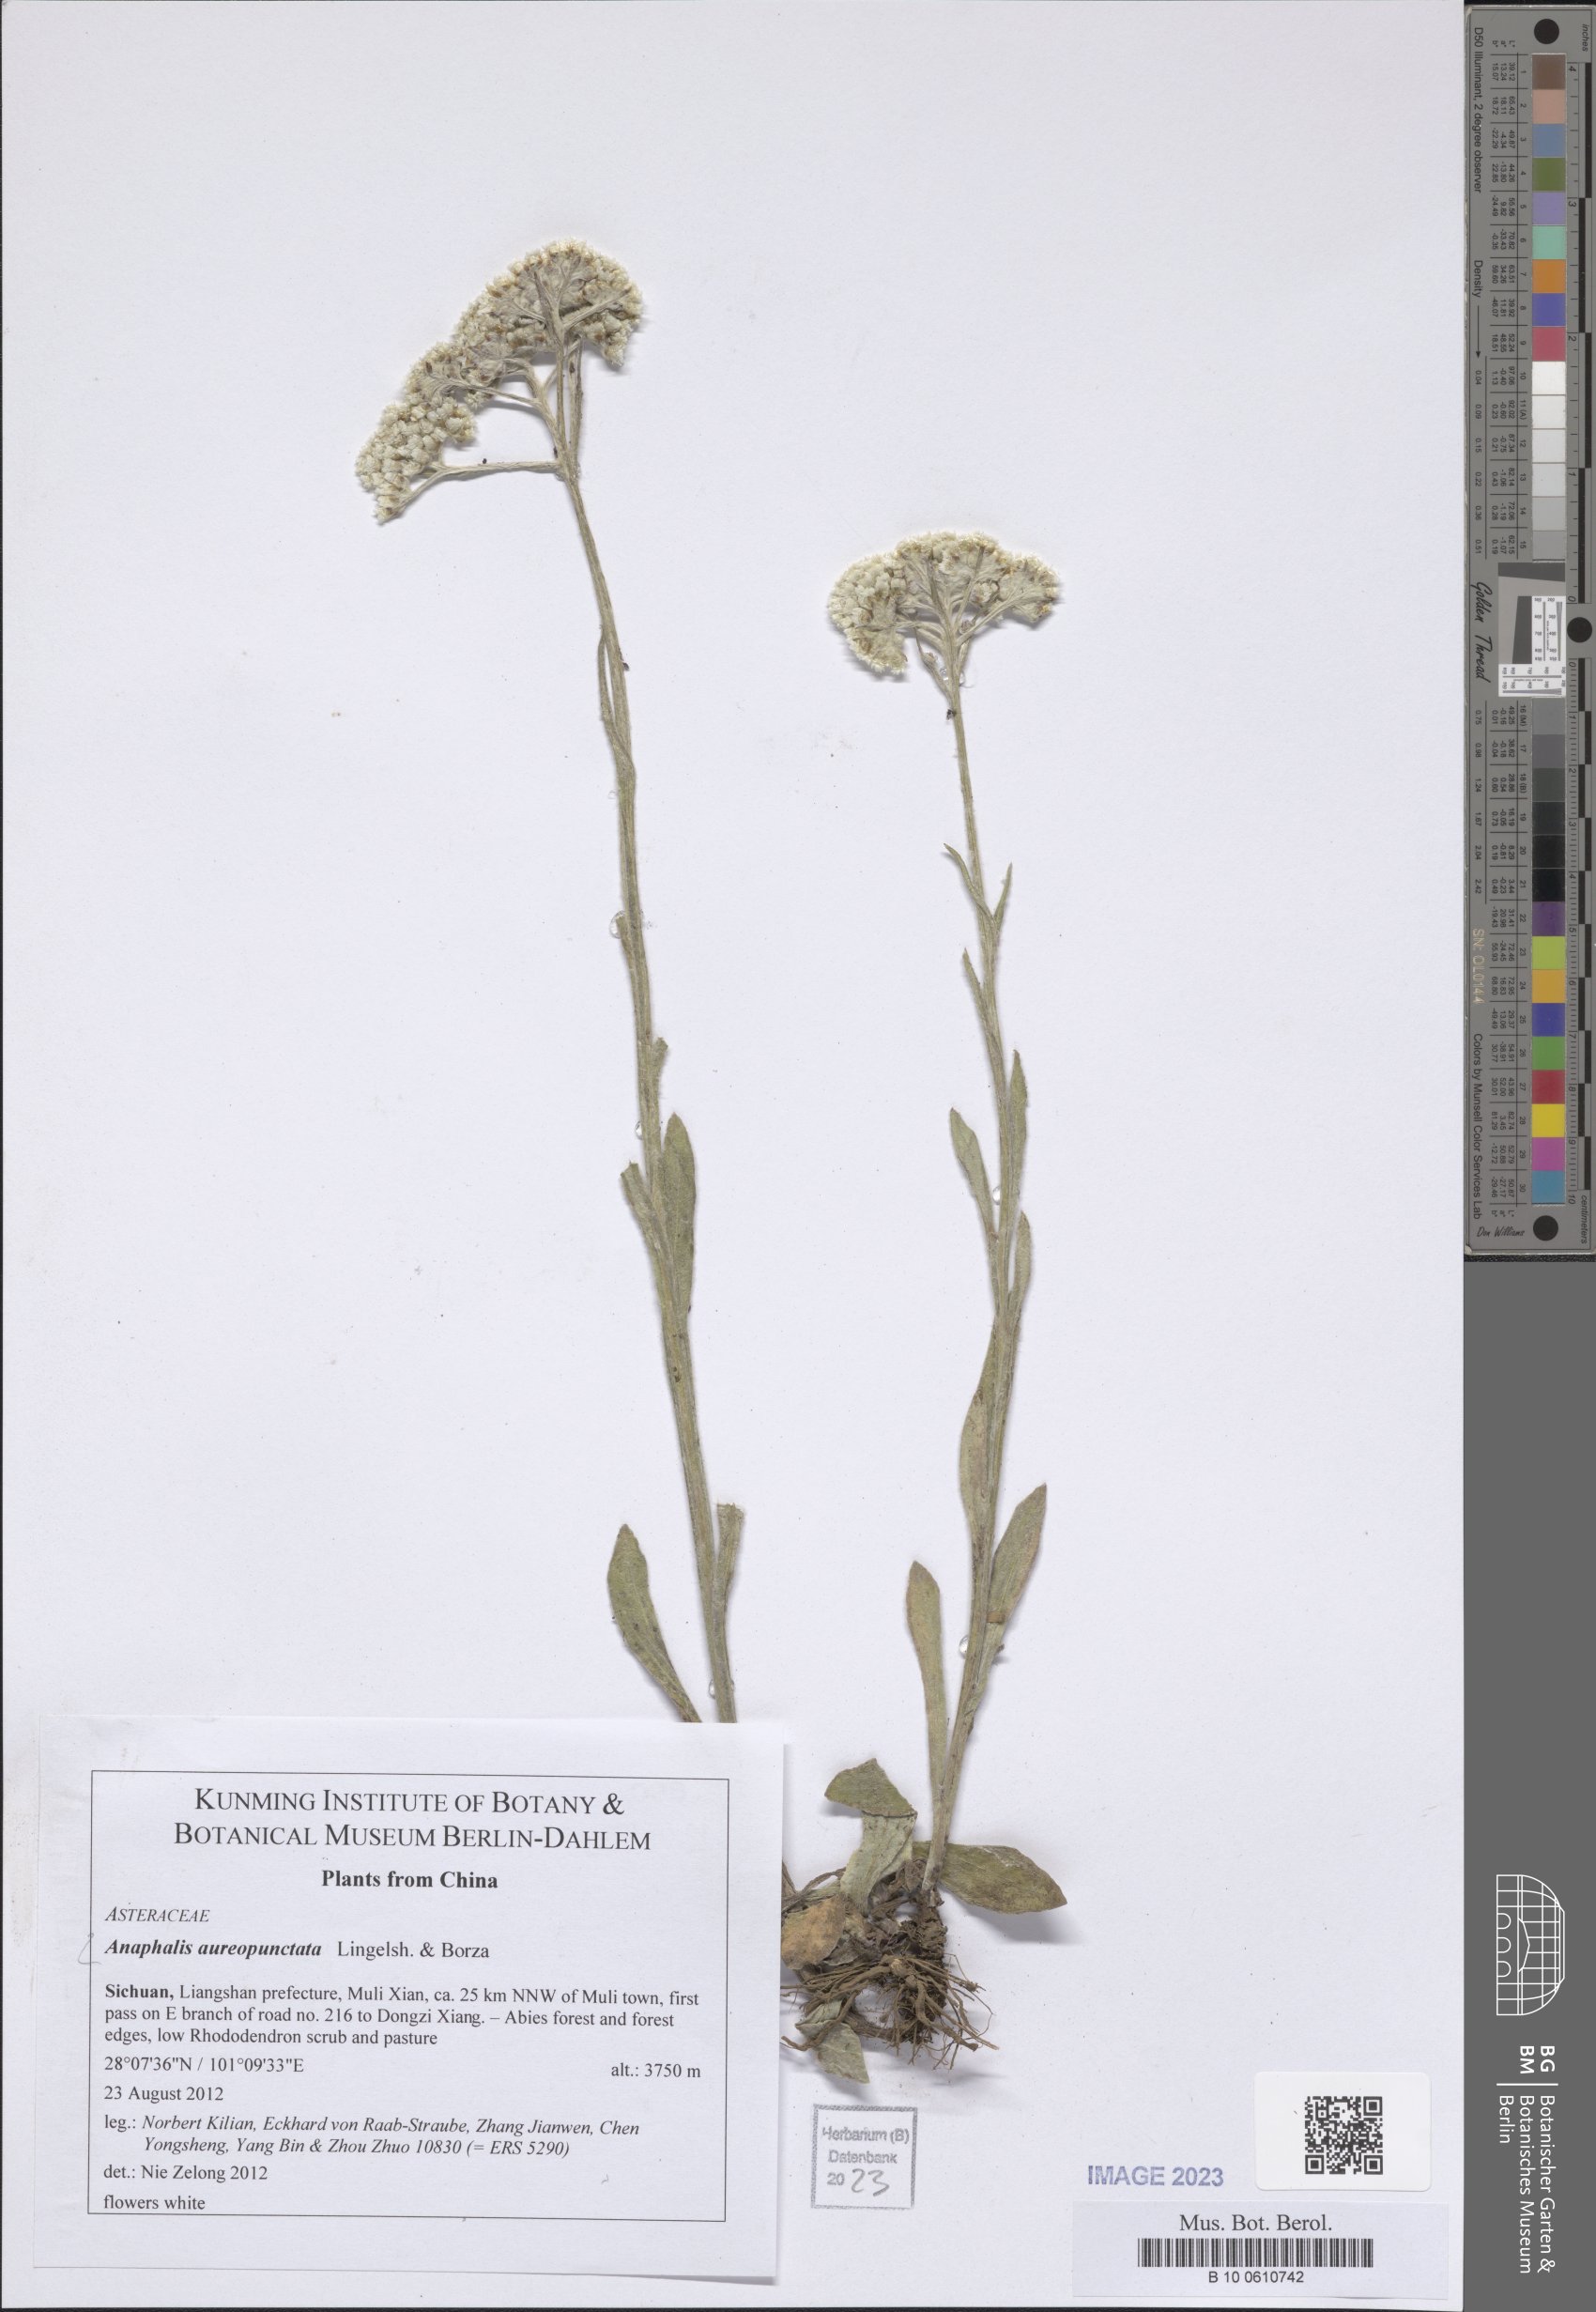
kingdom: Plantae
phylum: Tracheophyta
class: Magnoliopsida
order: Asterales
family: Asteraceae
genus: Anaphalis
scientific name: Anaphalis aureopunctata
